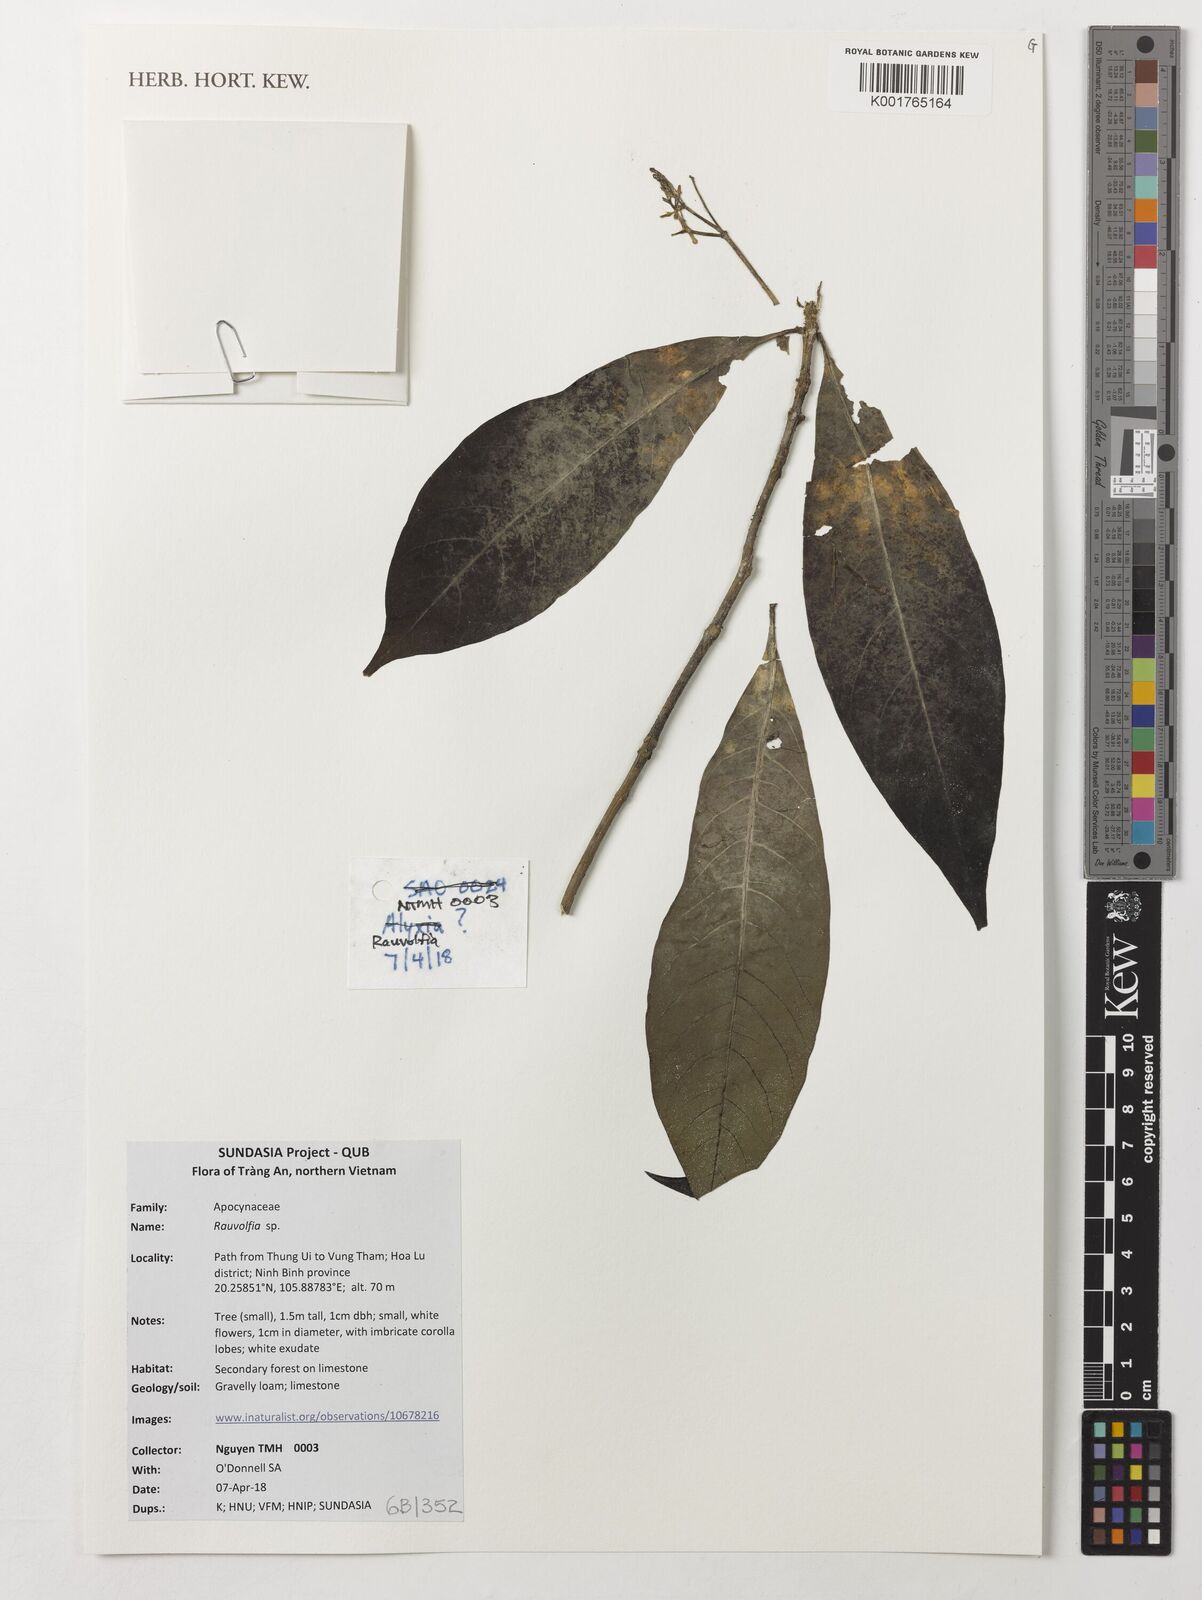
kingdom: Plantae
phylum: Tracheophyta
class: Magnoliopsida
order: Gentianales
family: Apocynaceae
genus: Rauvolfia
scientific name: Rauvolfia
